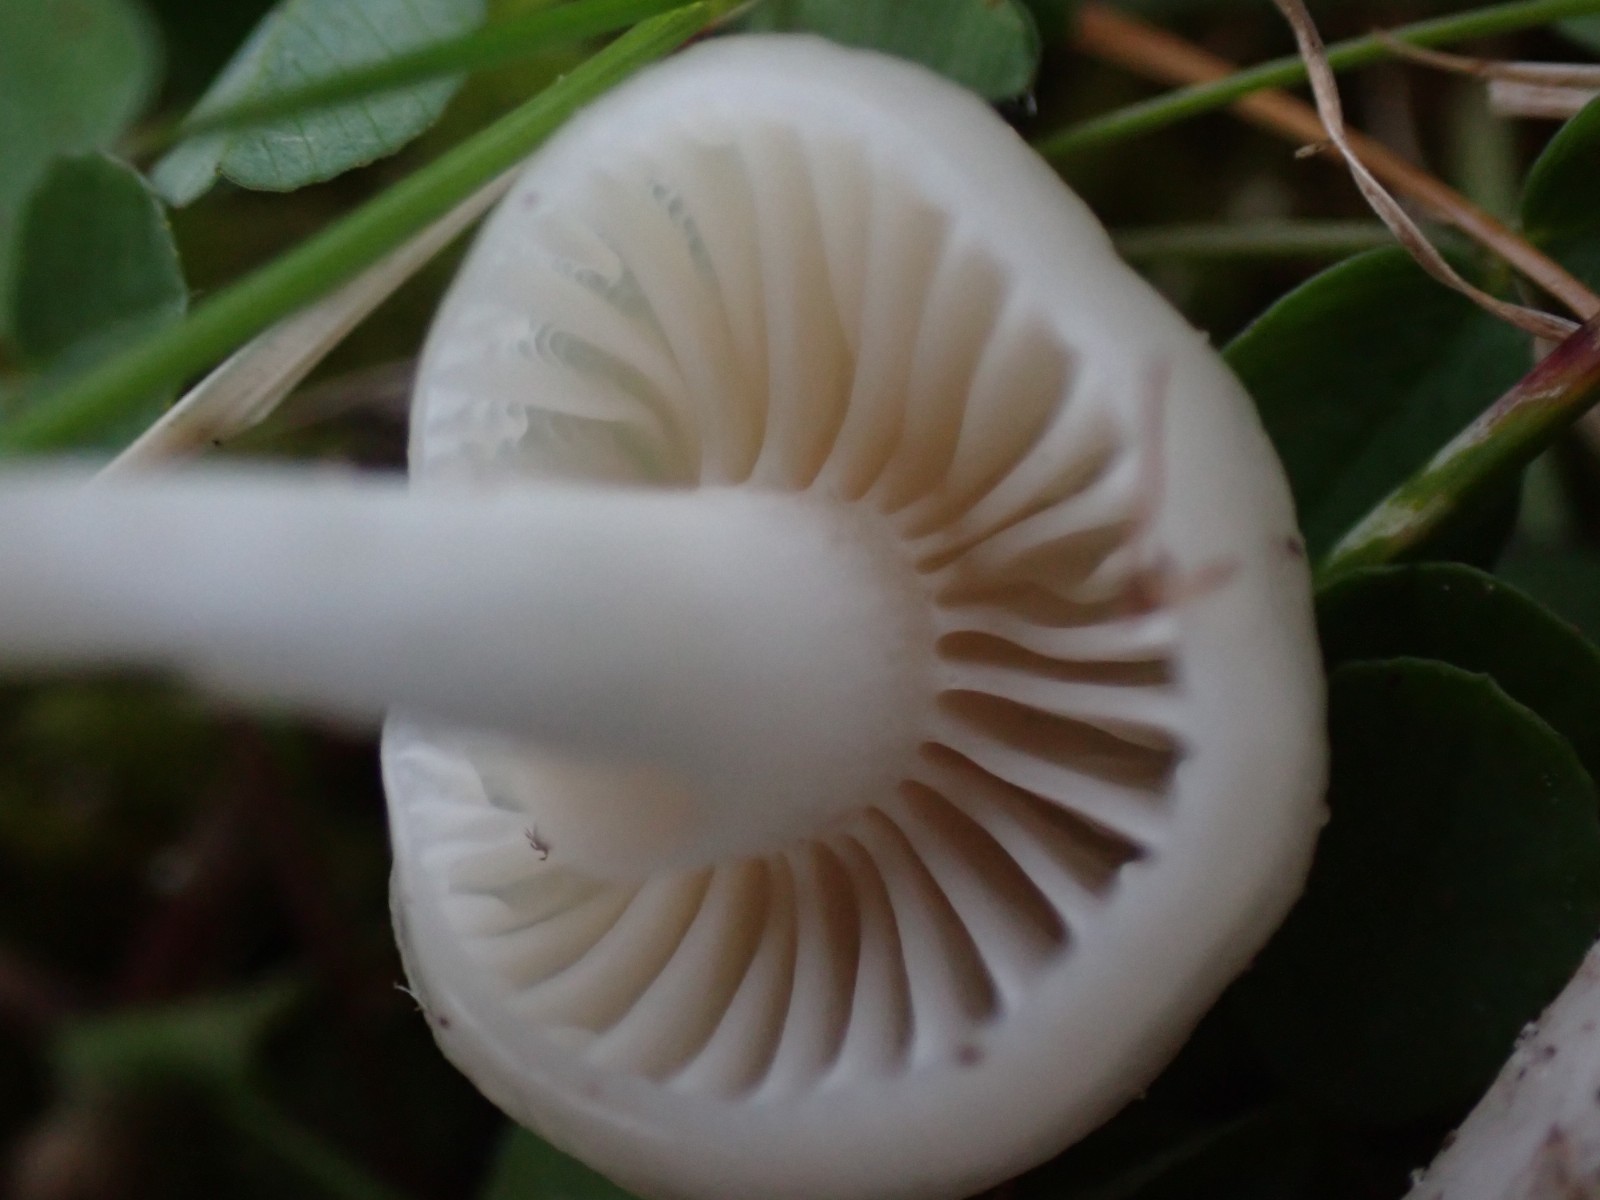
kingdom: Fungi
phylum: Basidiomycota
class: Agaricomycetes
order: Agaricales
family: Hygrophoraceae
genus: Cuphophyllus
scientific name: Cuphophyllus
